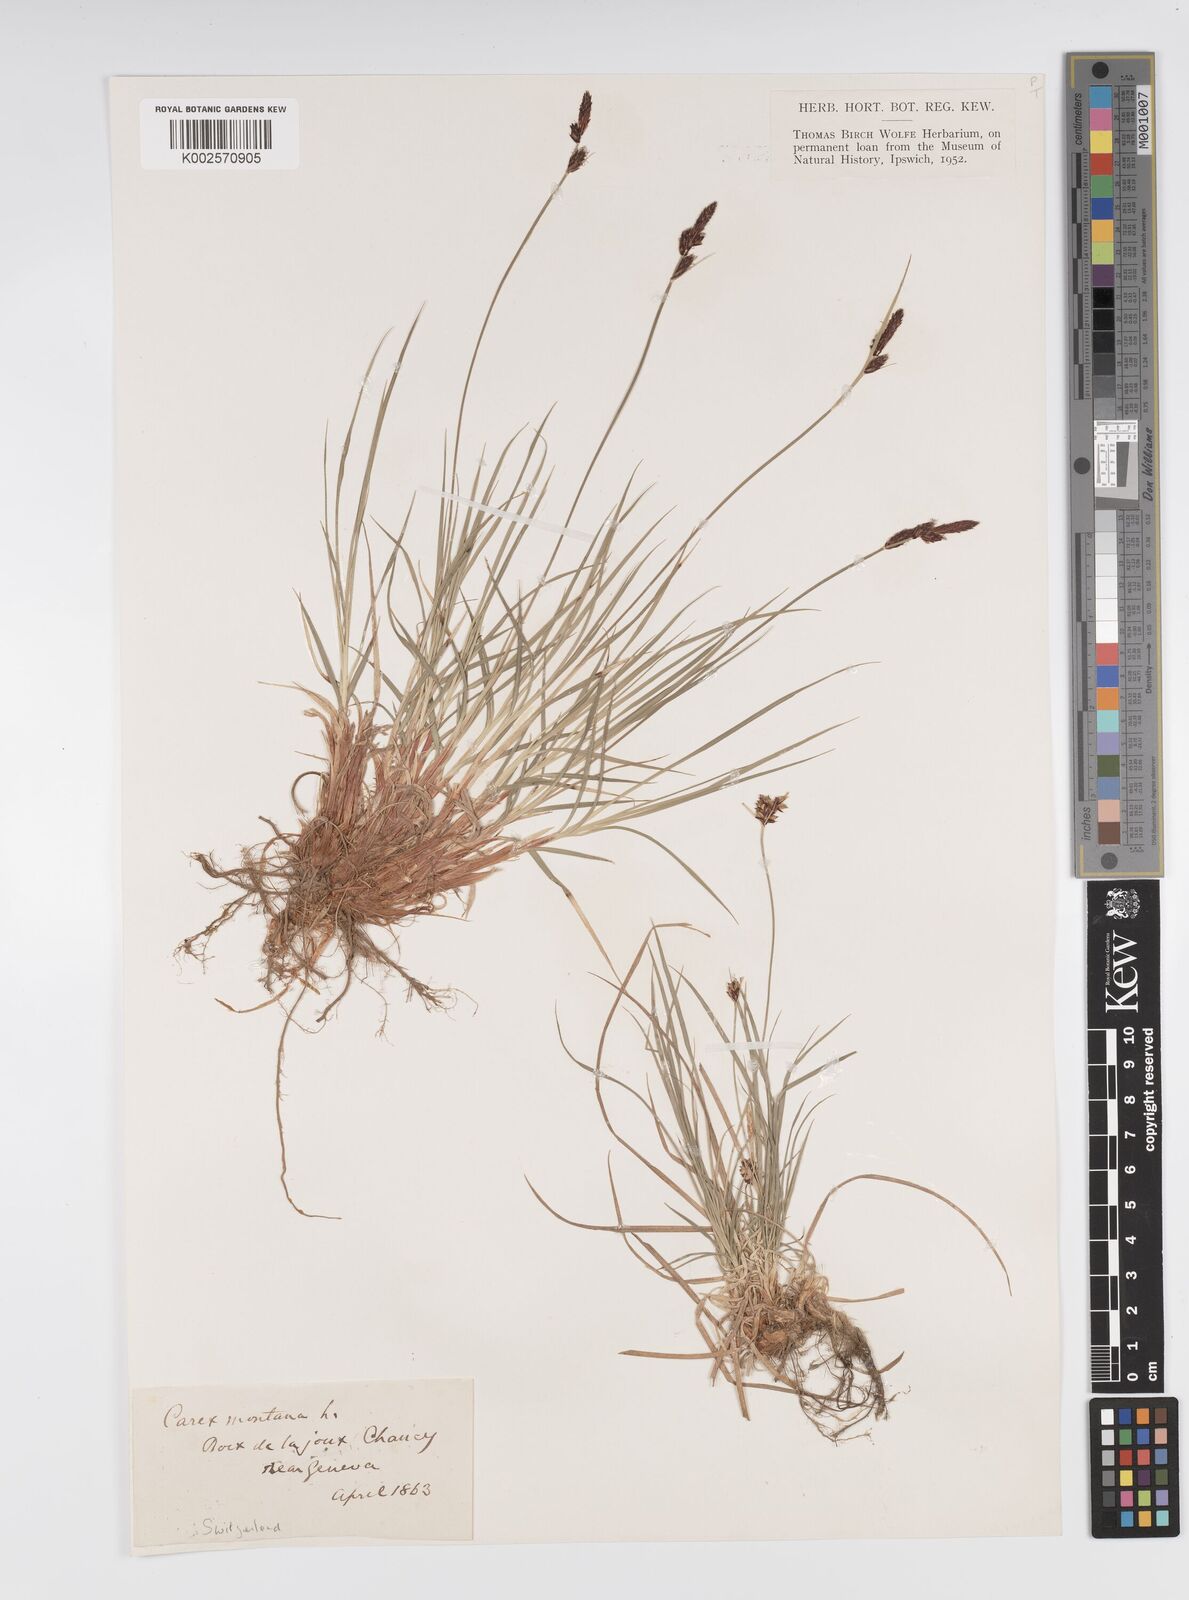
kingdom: Plantae
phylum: Tracheophyta
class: Liliopsida
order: Poales
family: Cyperaceae
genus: Carex
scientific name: Carex montana
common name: Soft-leaved sedge
